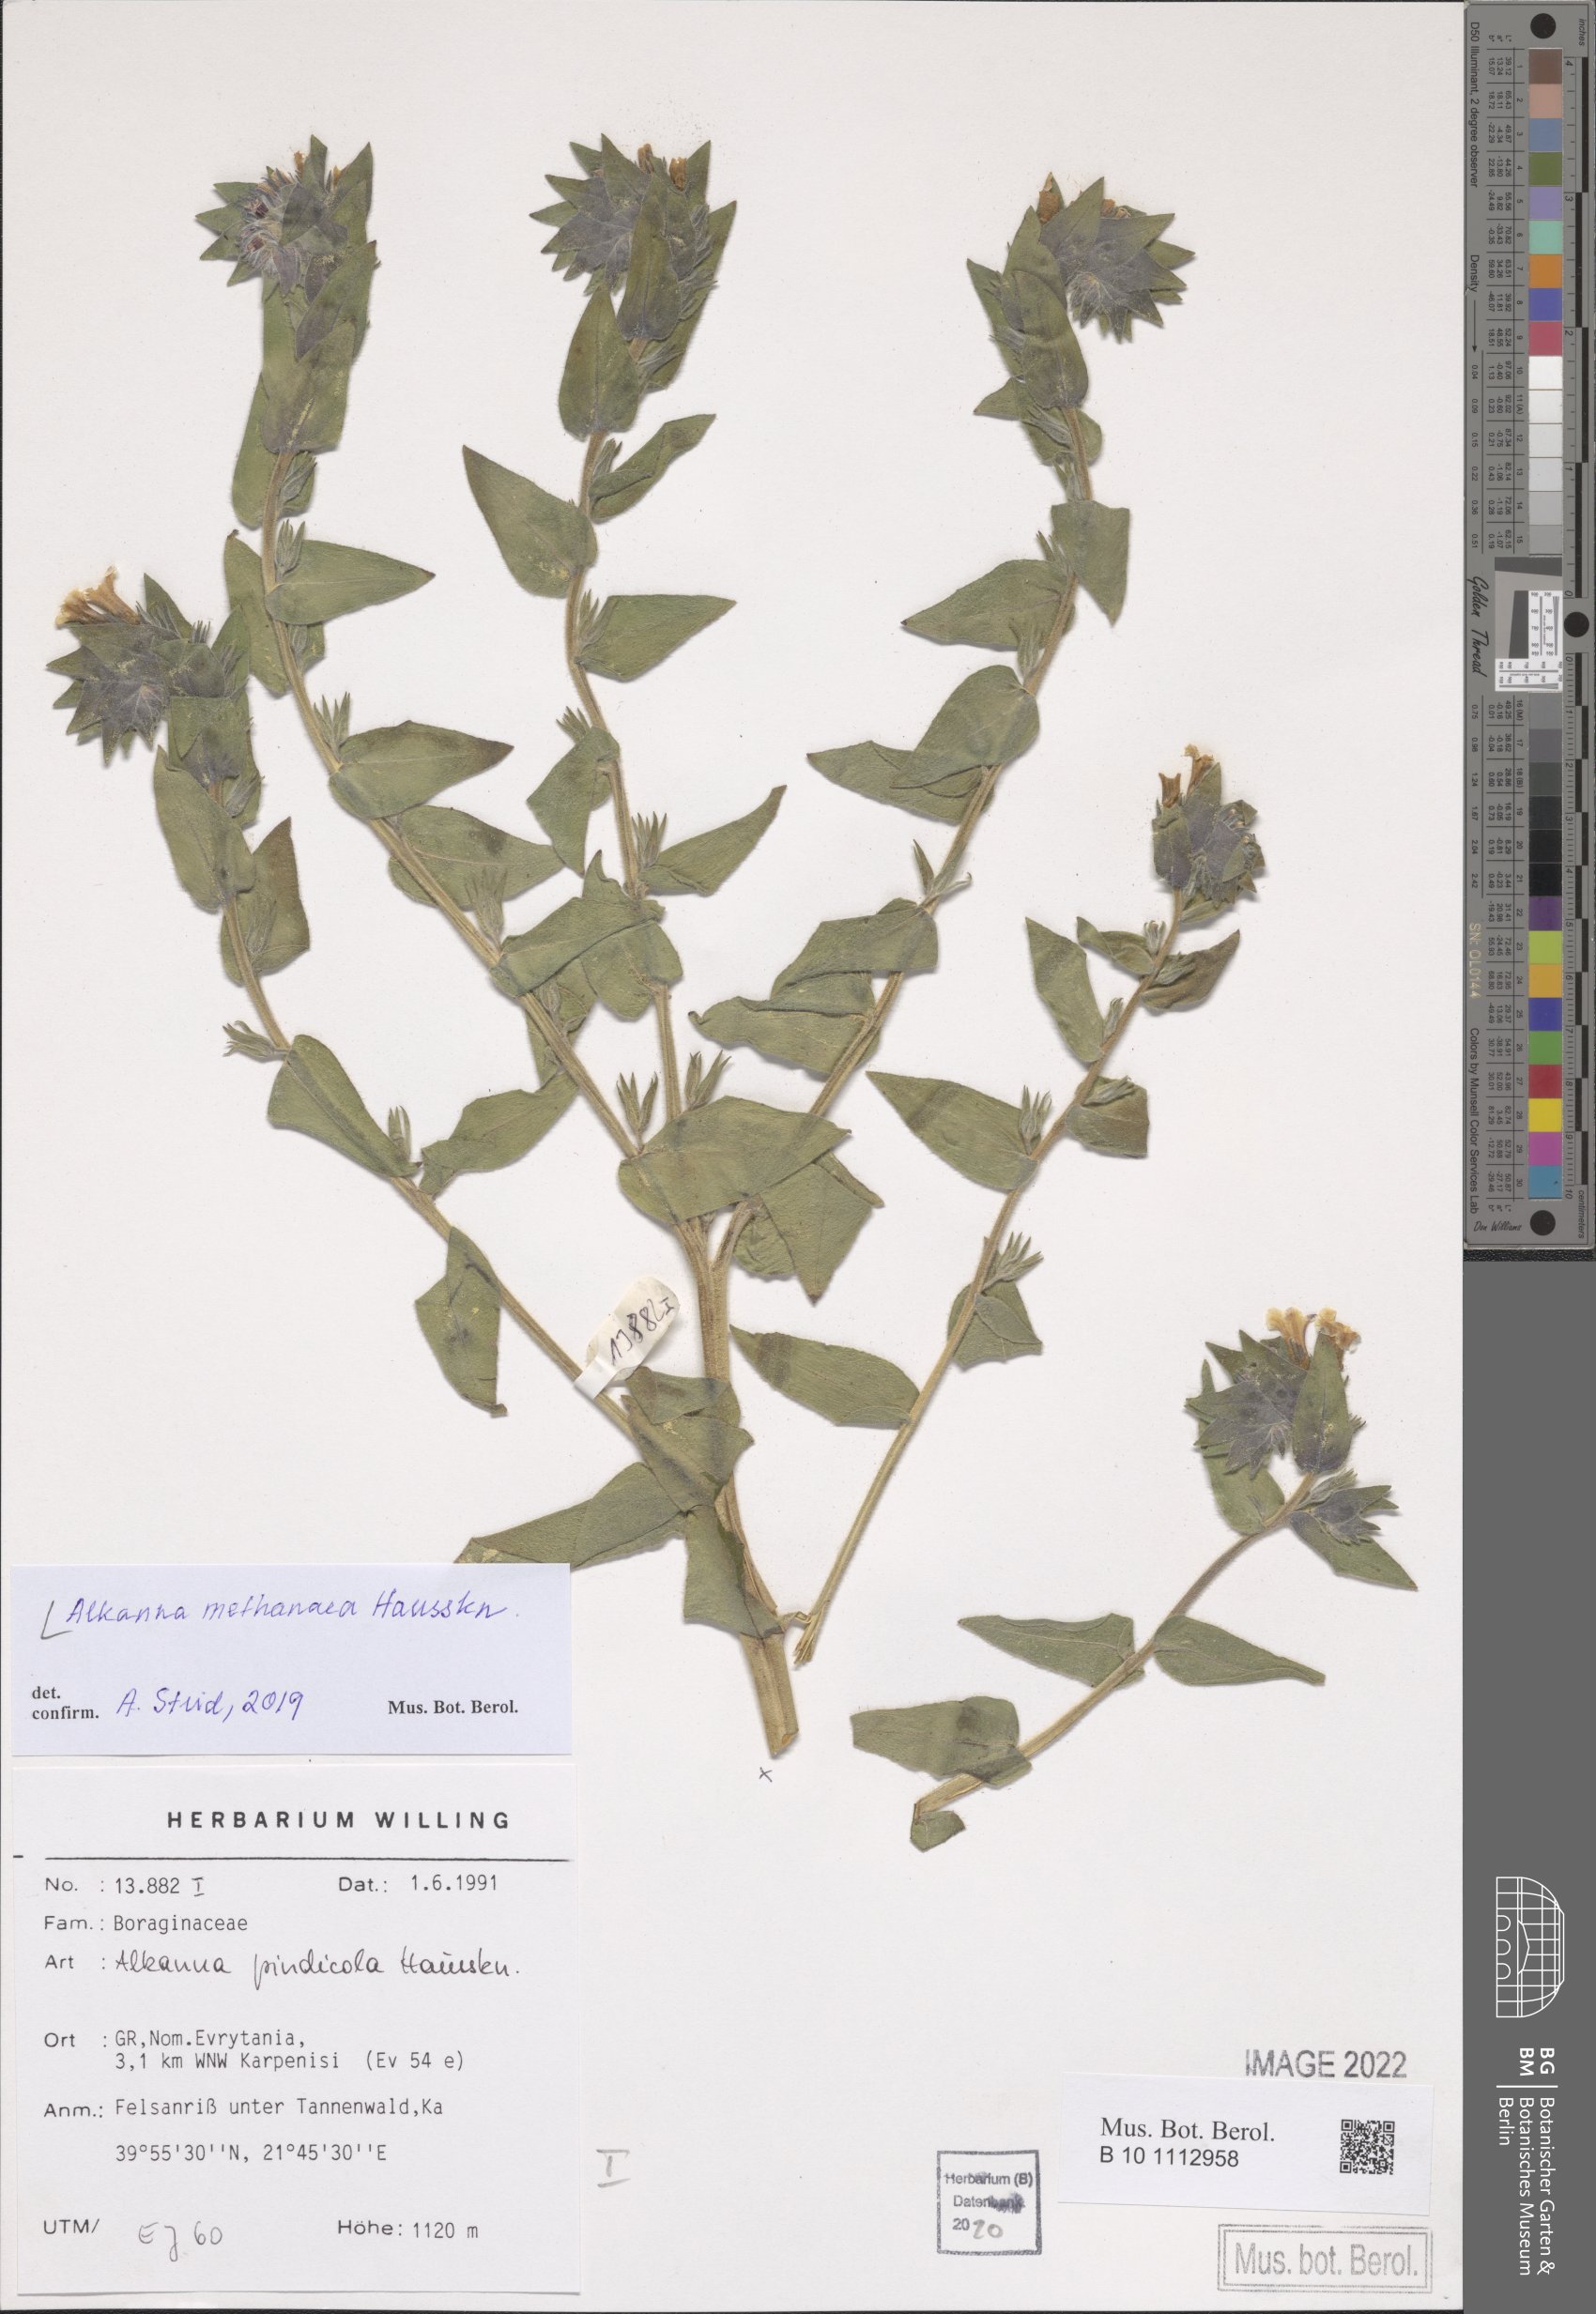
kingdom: Plantae
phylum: Tracheophyta
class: Magnoliopsida
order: Boraginales
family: Boraginaceae
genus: Alkanna
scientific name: Alkanna methanaea
